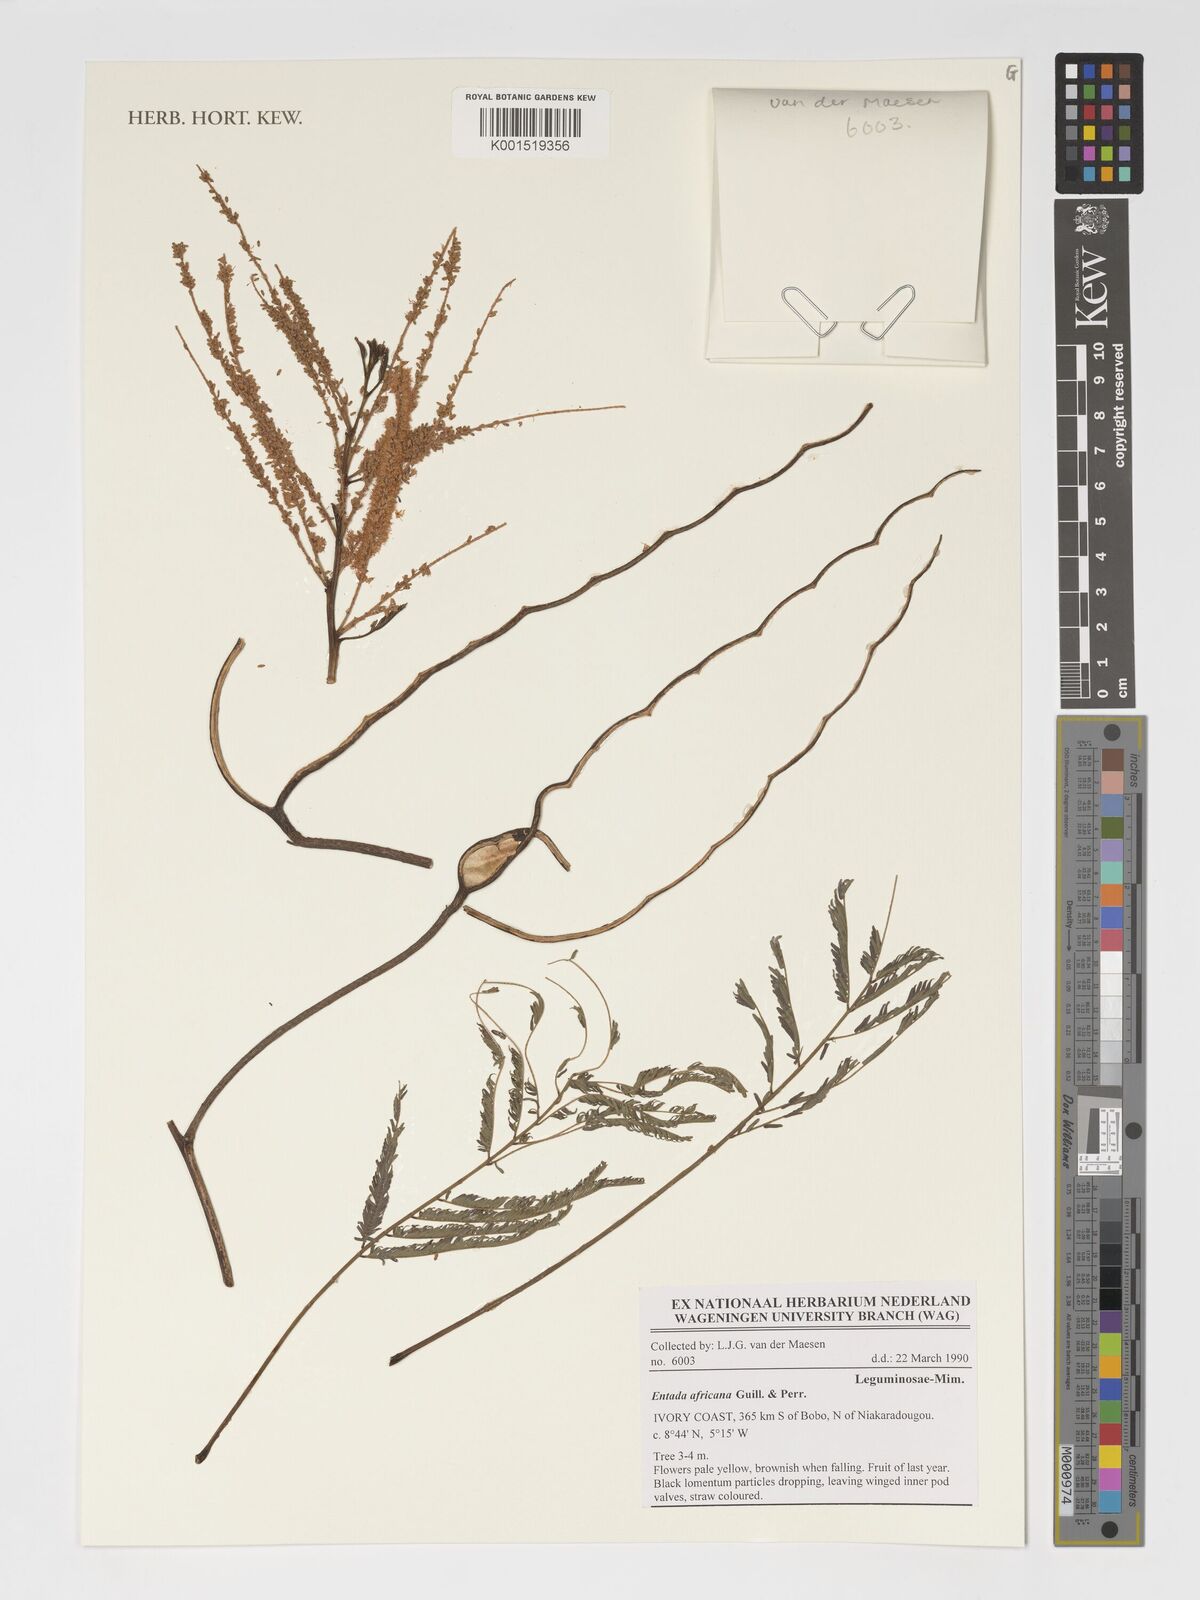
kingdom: Plantae
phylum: Tracheophyta
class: Magnoliopsida
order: Fabales
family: Fabaceae
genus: Entada
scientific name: Entada africana
